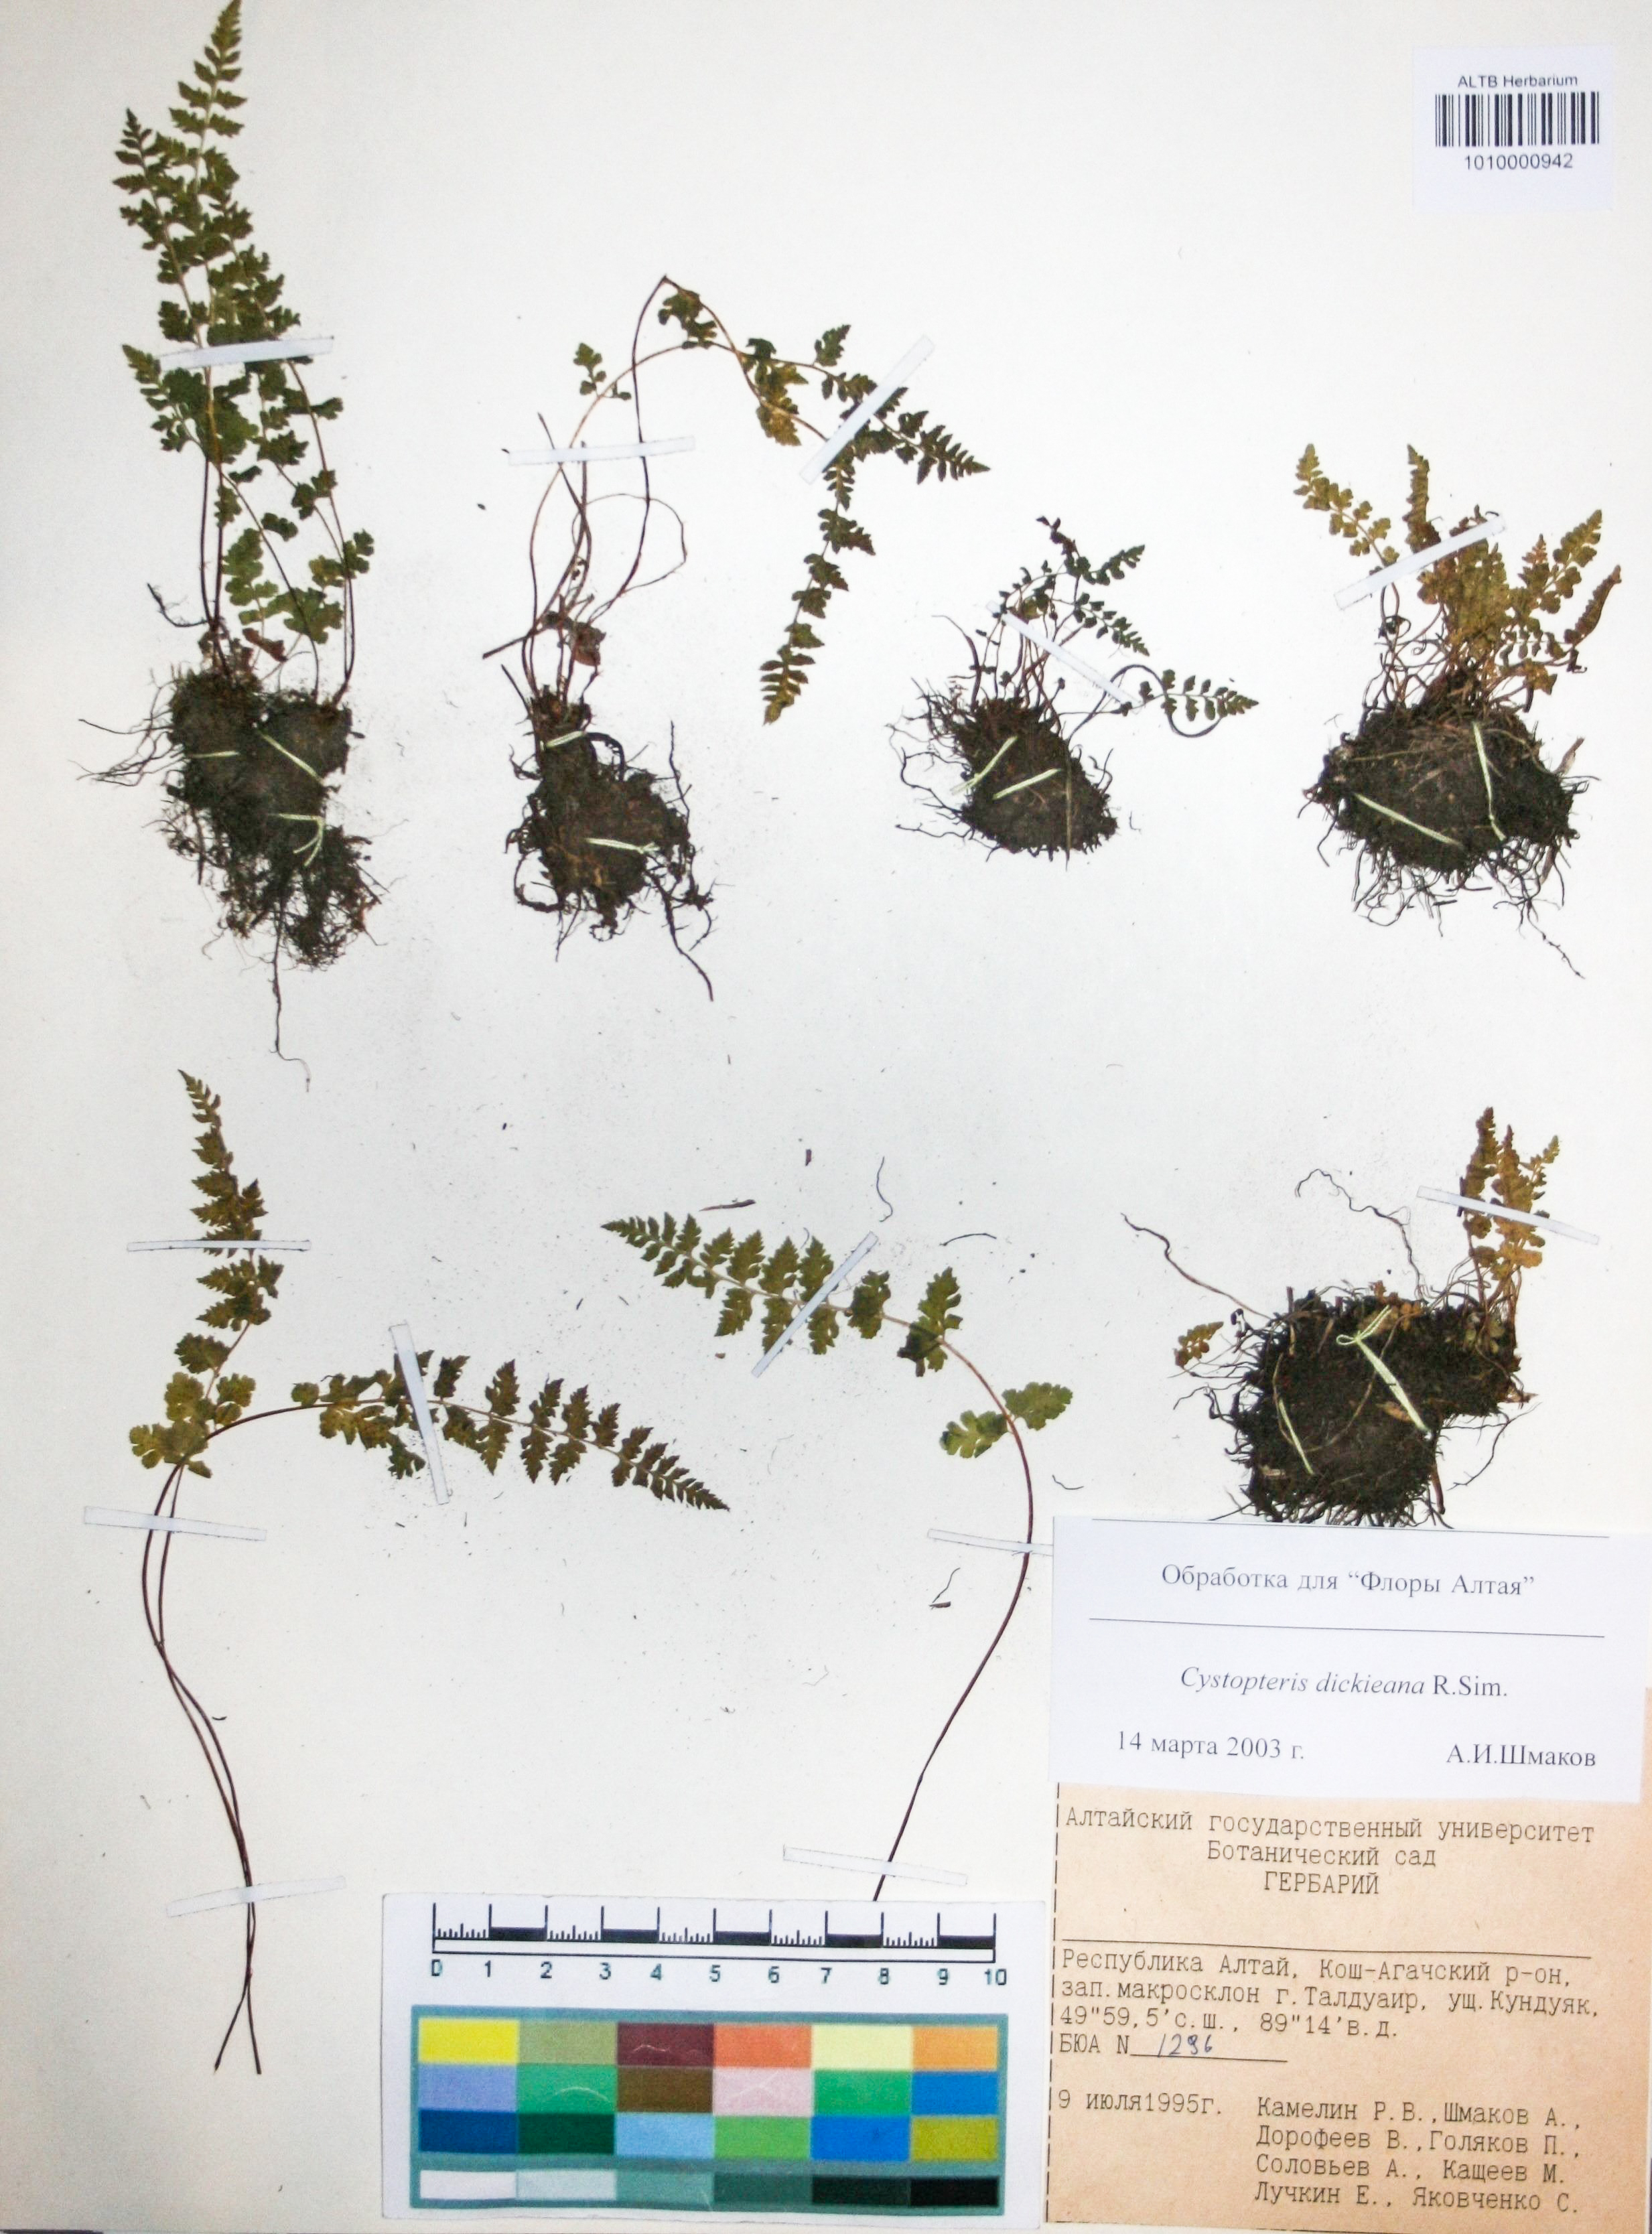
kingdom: Plantae
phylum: Tracheophyta
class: Polypodiopsida
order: Polypodiales
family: Cystopteridaceae
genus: Cystopteris
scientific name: Cystopteris fragilis
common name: Brittle bladder fern
